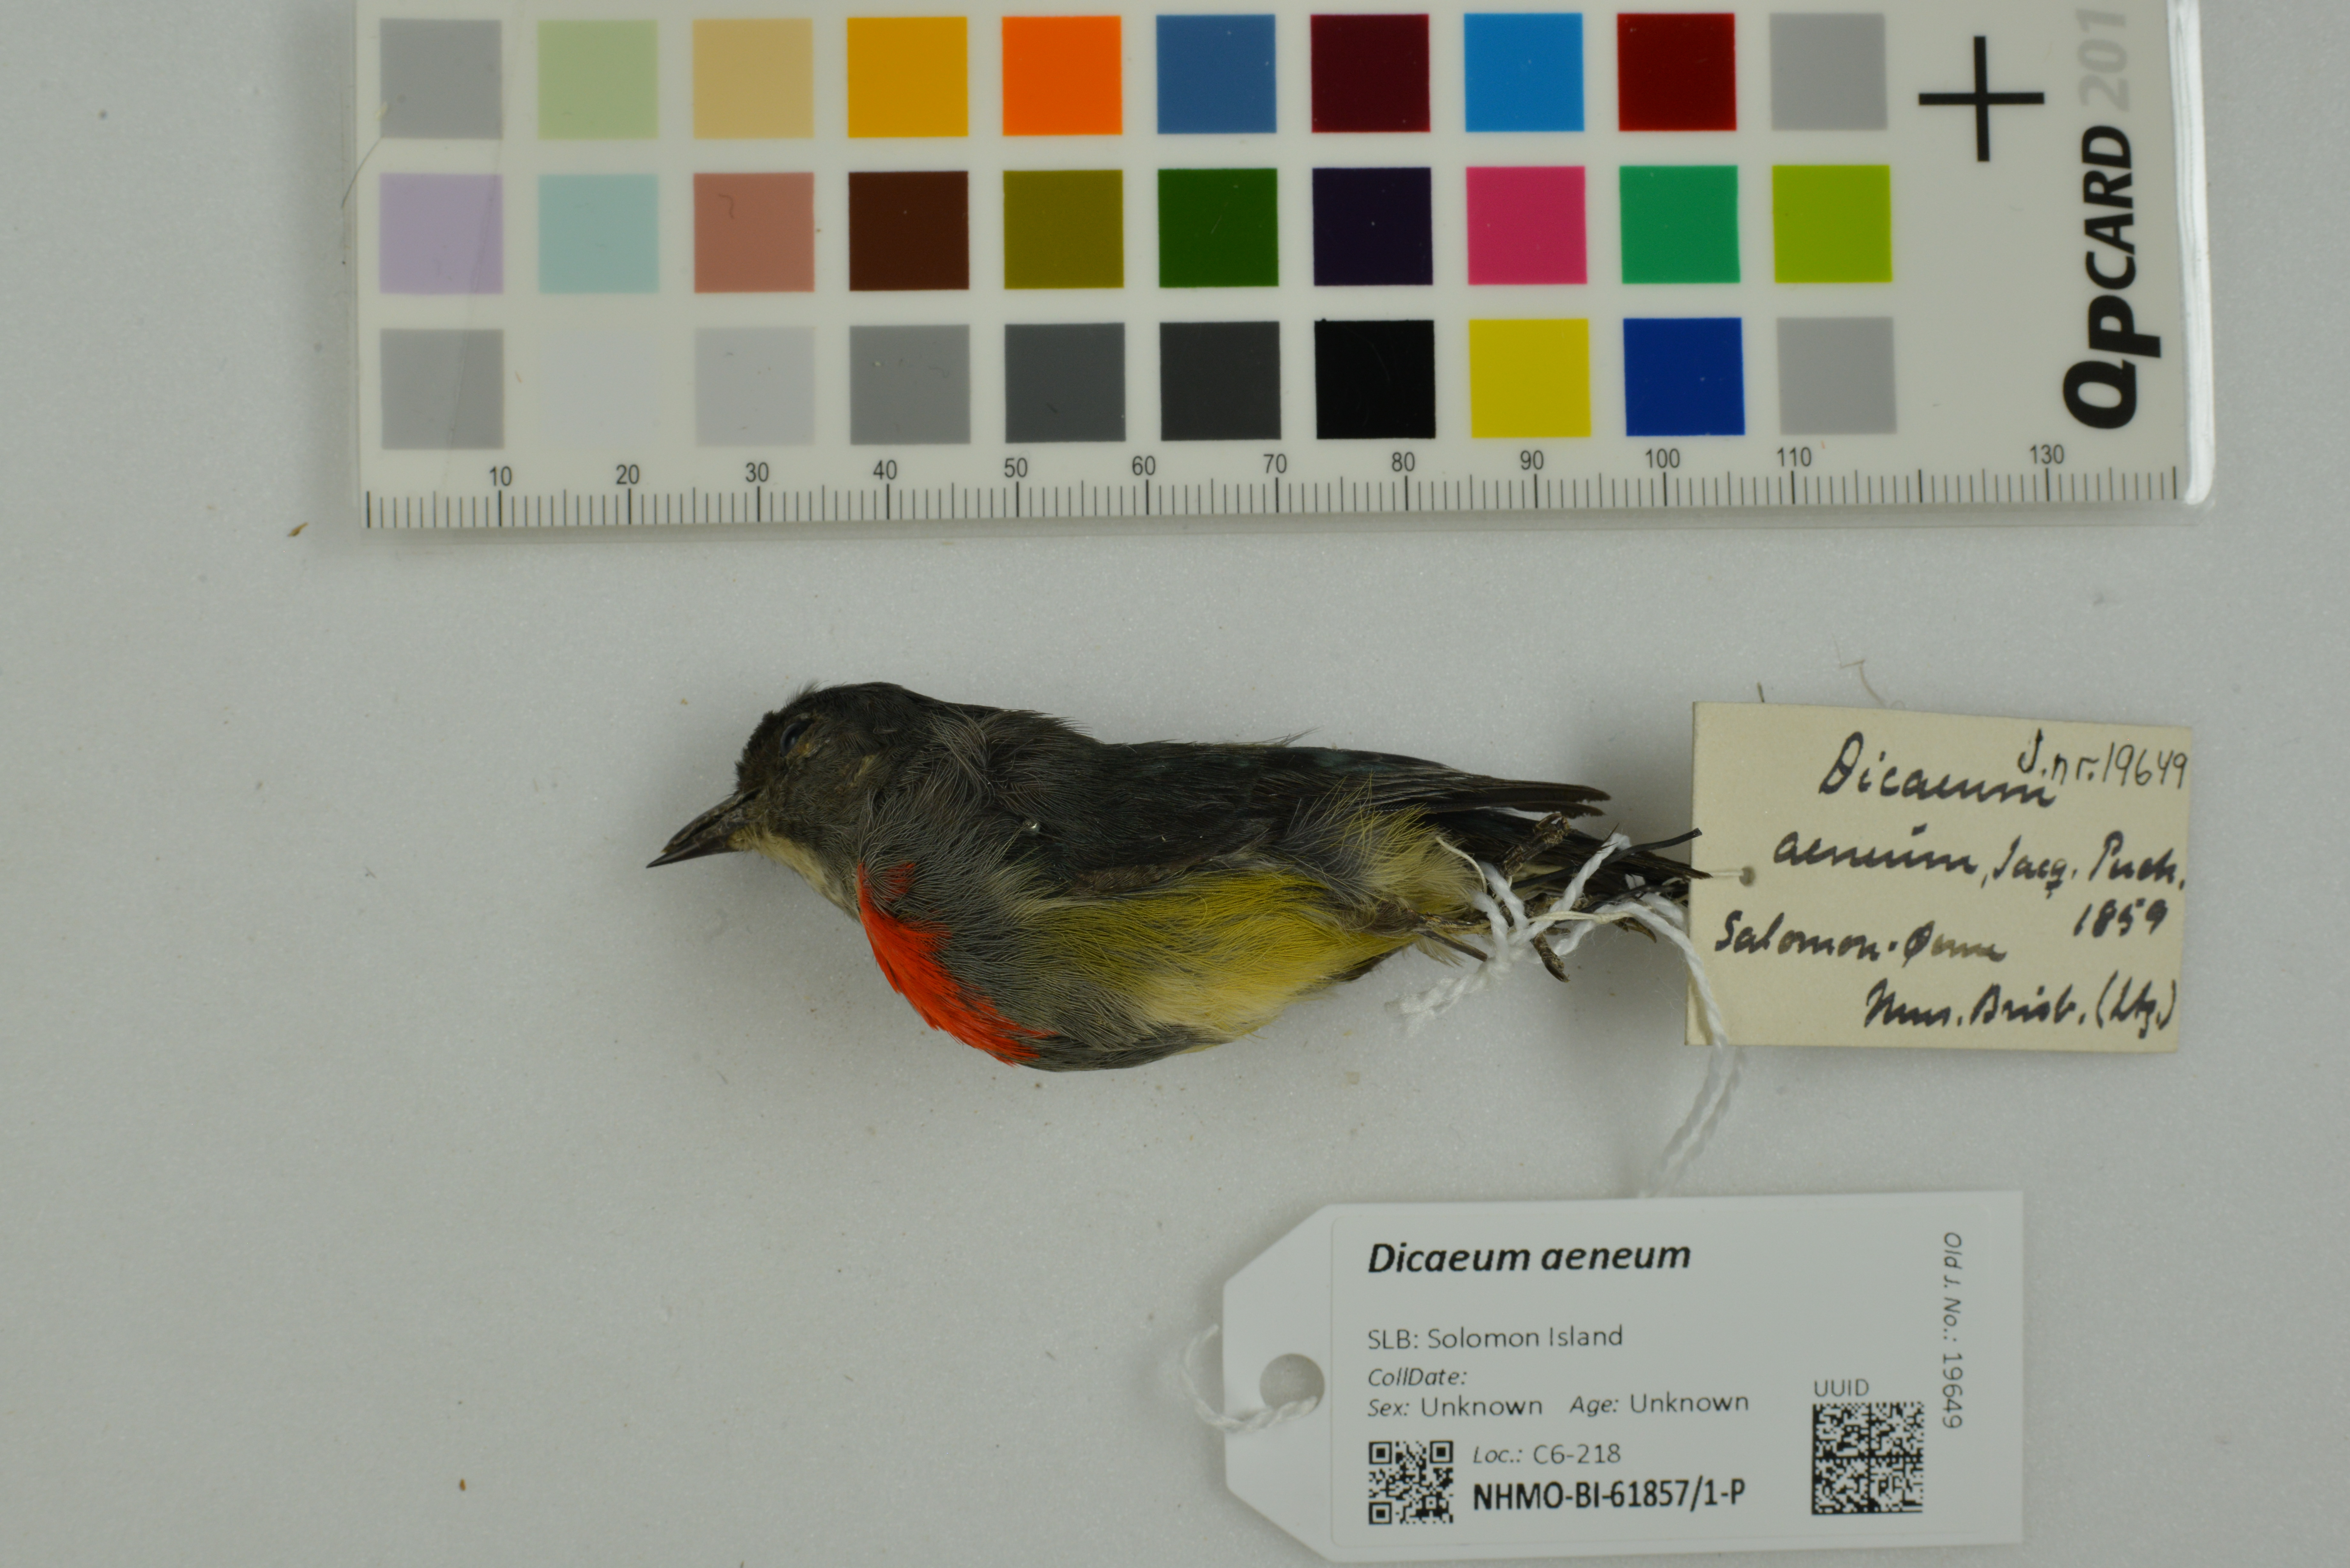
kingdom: Animalia
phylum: Chordata
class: Aves
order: Passeriformes
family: Dicaeidae
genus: Dicaeum
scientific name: Dicaeum aeneum
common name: Midget flowerpecker
